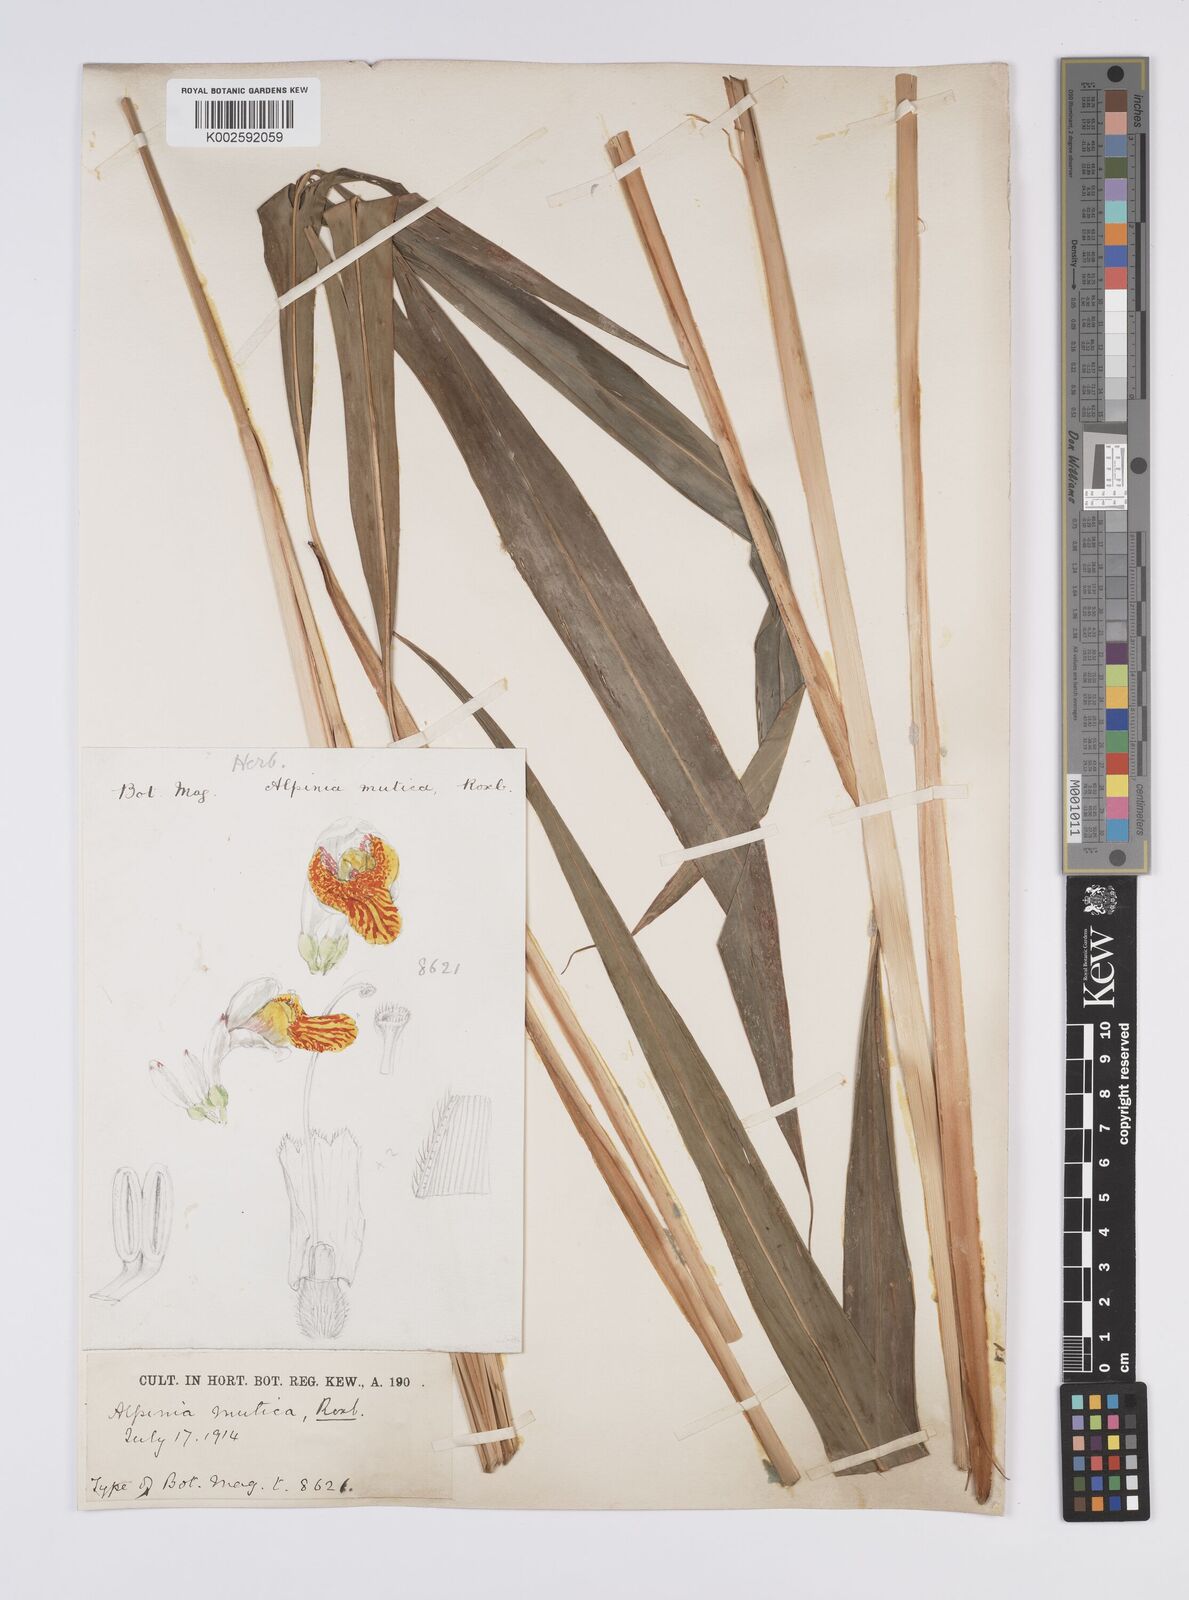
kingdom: Plantae
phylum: Tracheophyta
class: Liliopsida
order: Zingiberales
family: Zingiberaceae
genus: Alpinia
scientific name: Alpinia mutica
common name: Small shell ginger
